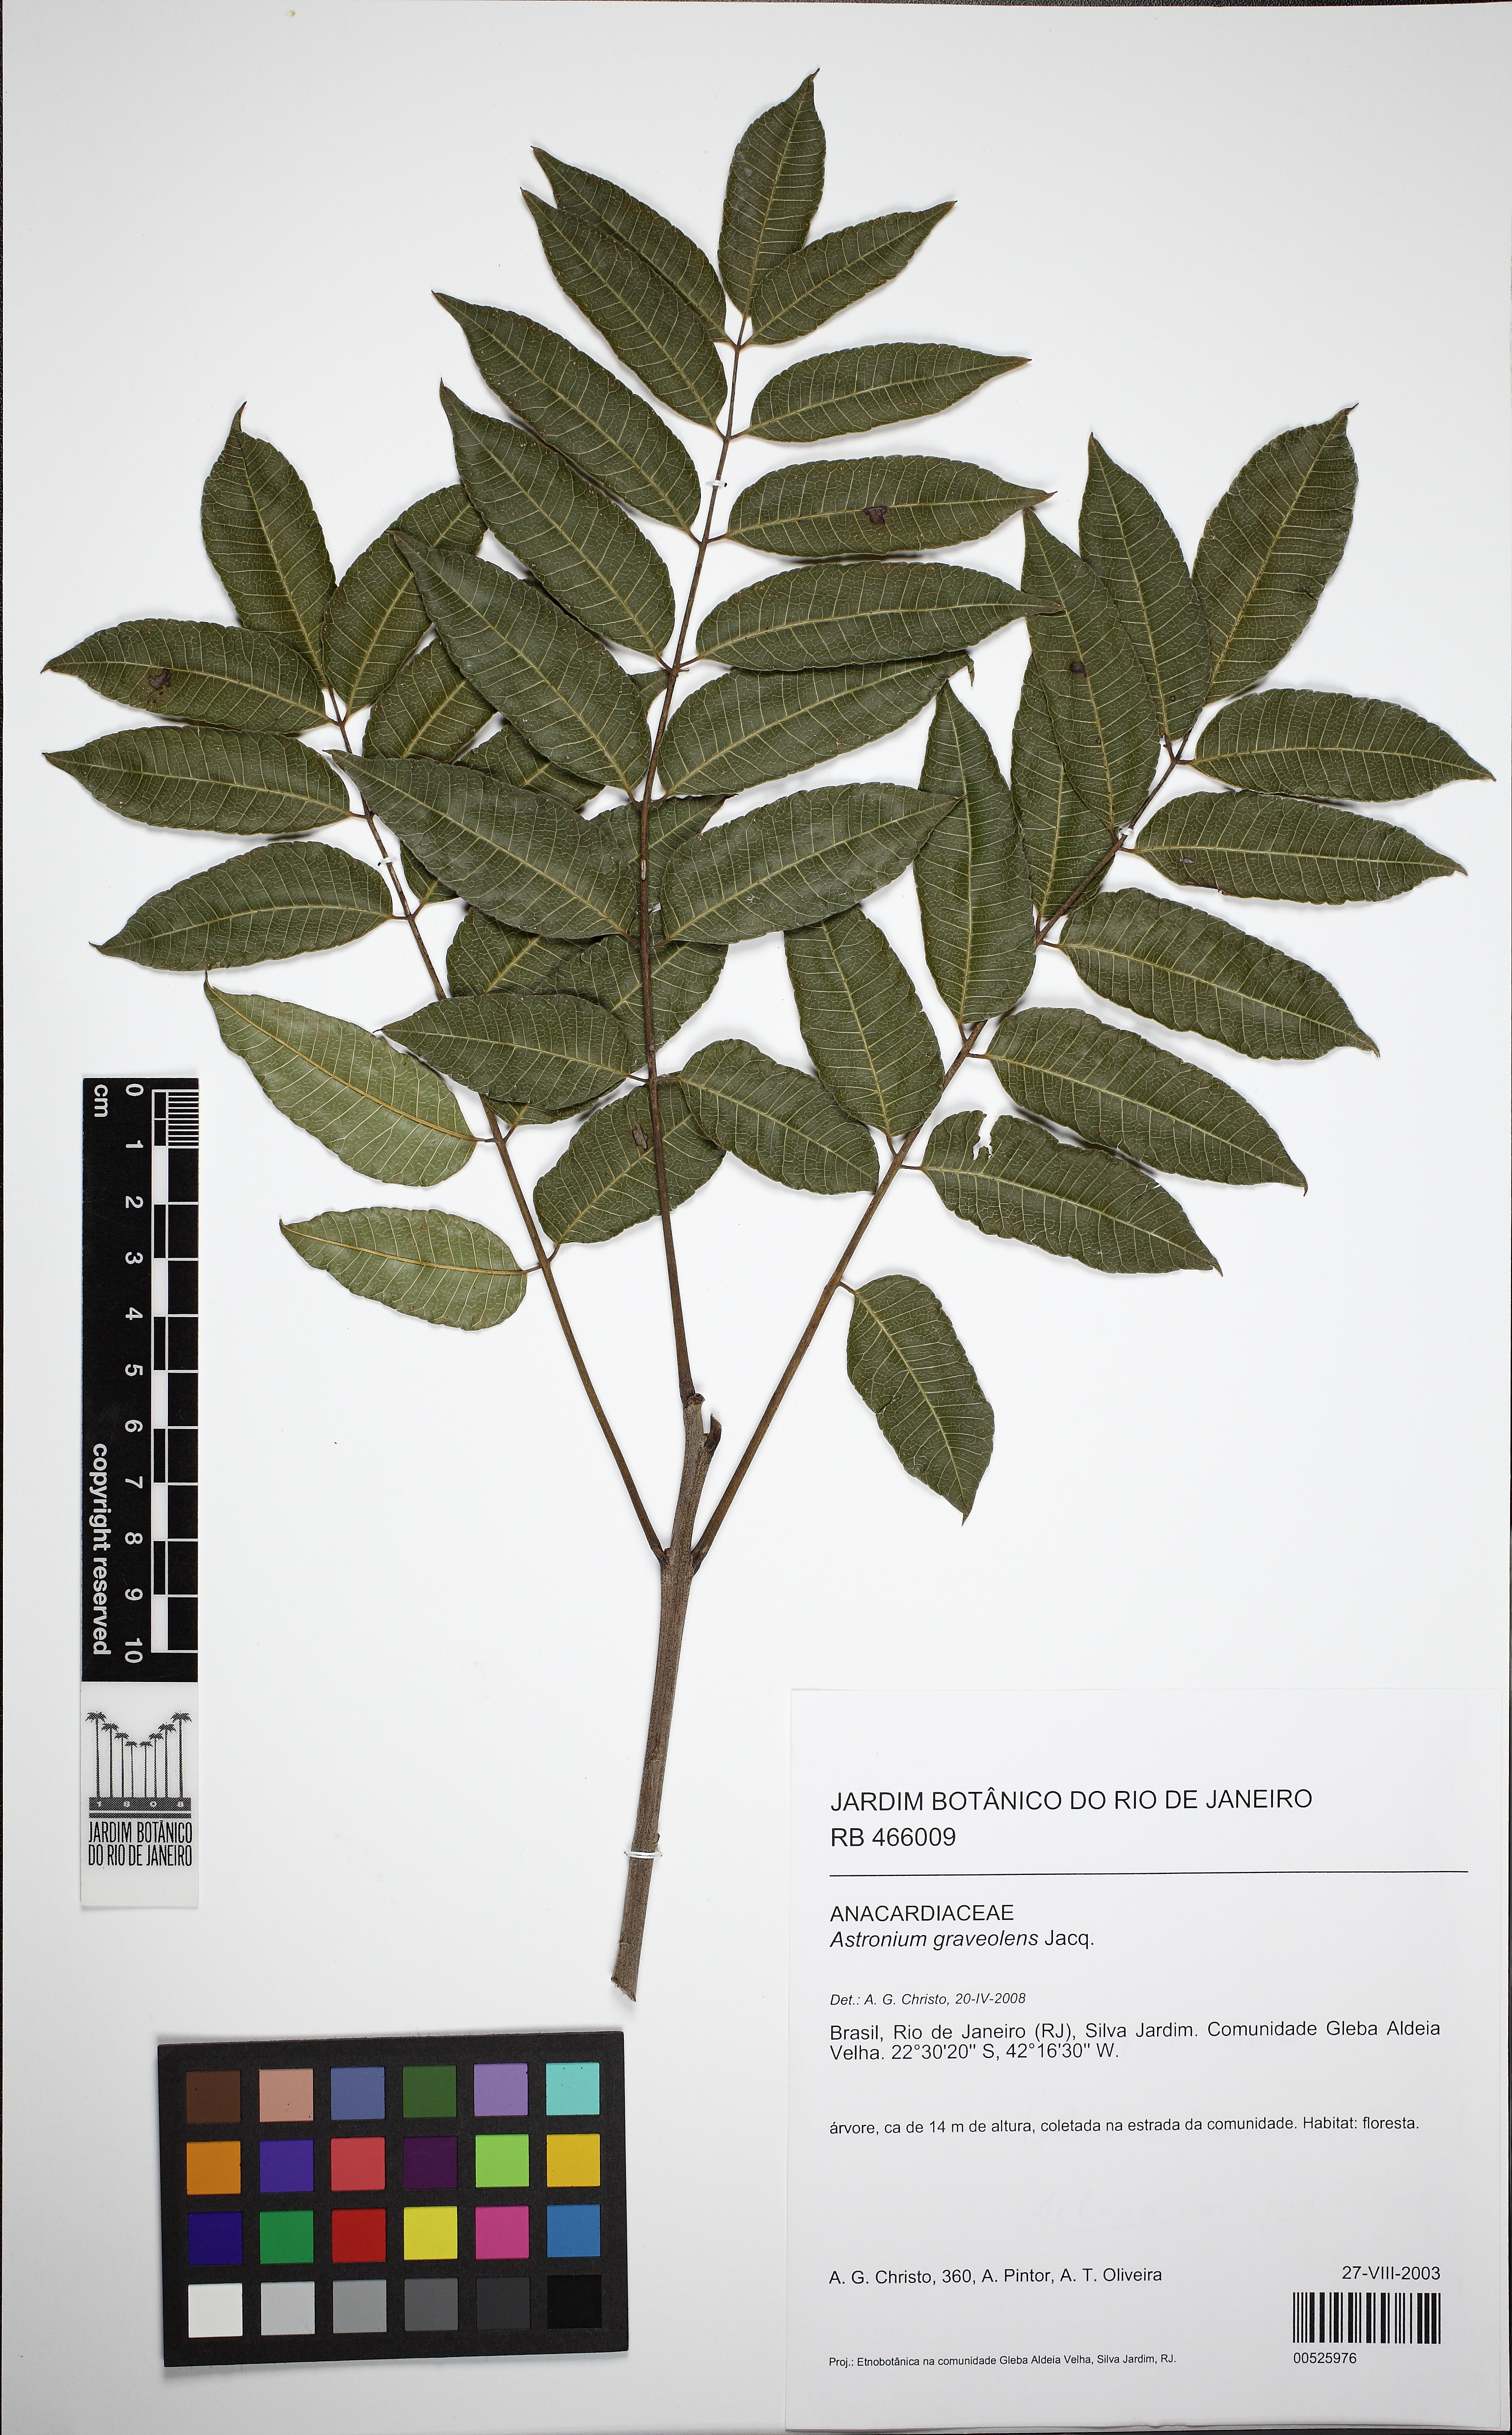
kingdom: Plantae
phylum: Tracheophyta
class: Magnoliopsida
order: Sapindales
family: Anacardiaceae
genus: Astronium
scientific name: Astronium graveolens
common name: Glassywood
